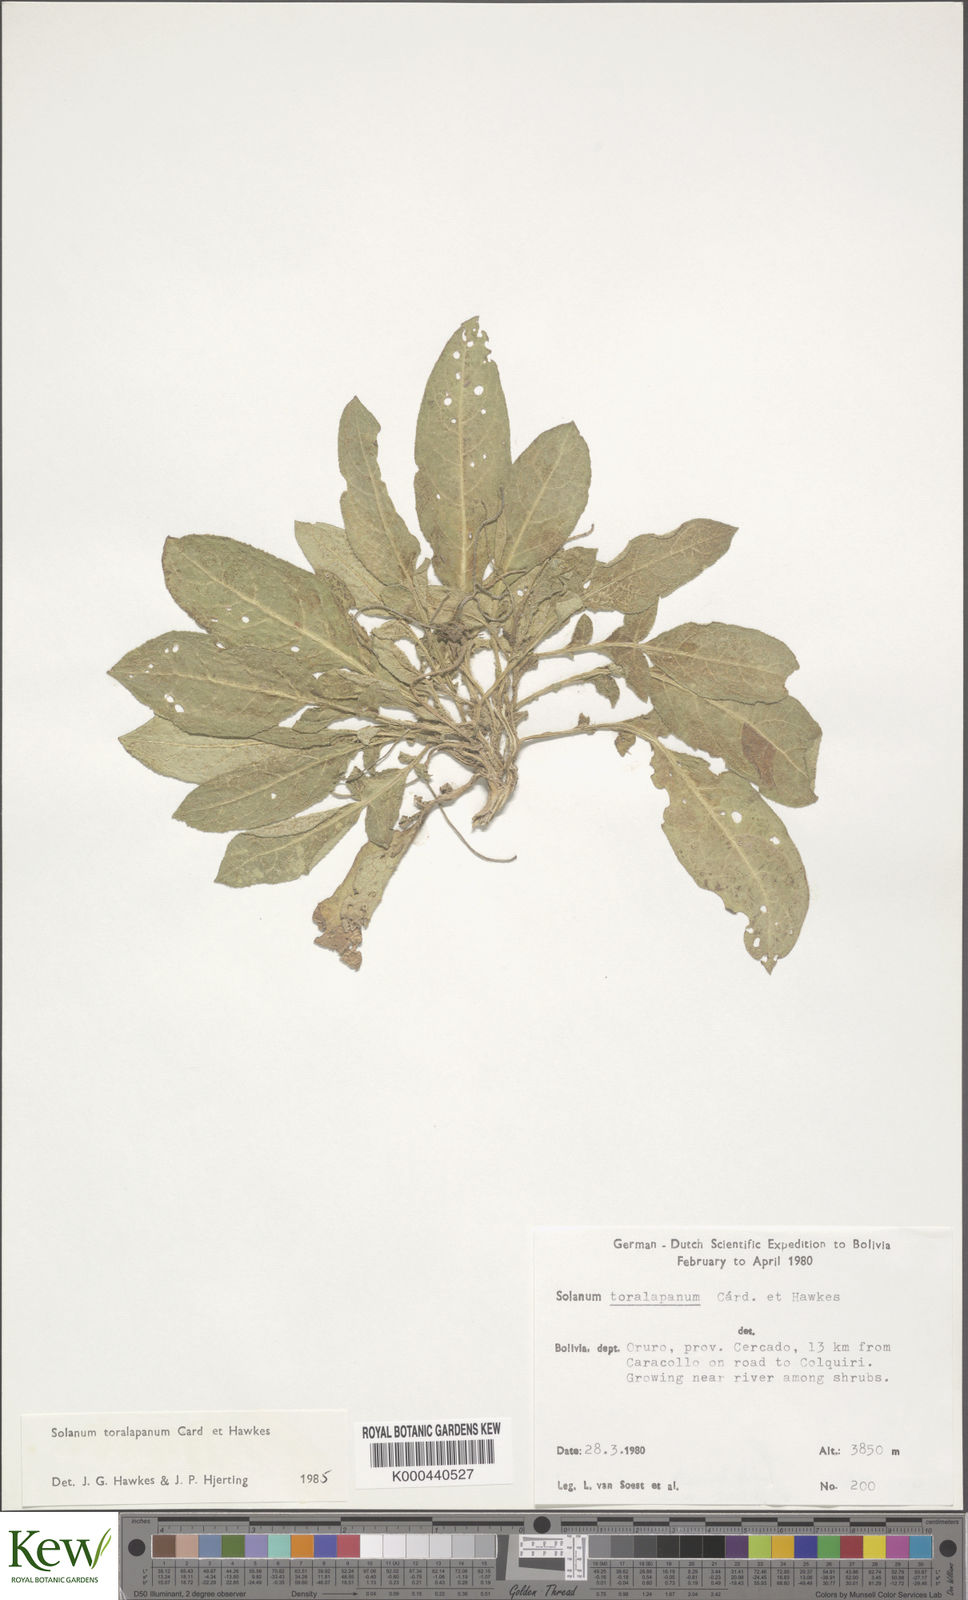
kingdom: Plantae
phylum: Tracheophyta
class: Magnoliopsida
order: Solanales
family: Solanaceae
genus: Solanum
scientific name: Solanum boliviense
